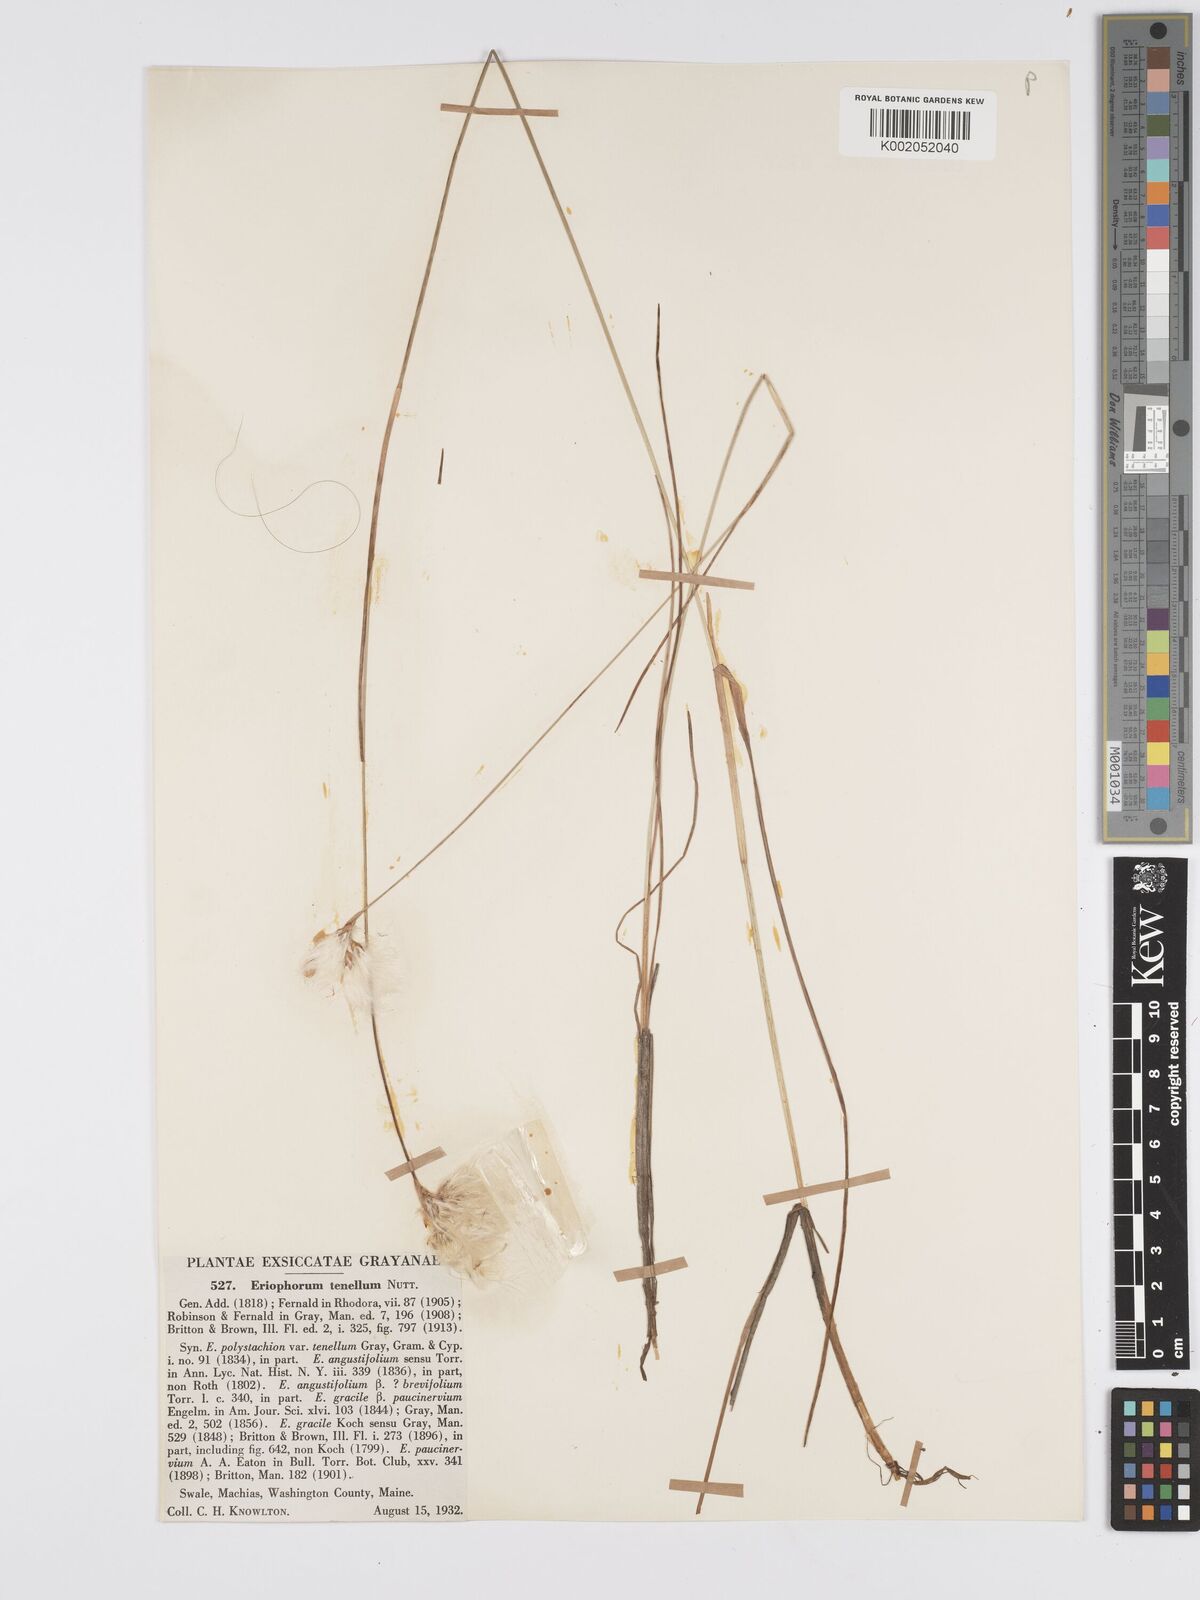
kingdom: Plantae
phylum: Tracheophyta
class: Liliopsida
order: Poales
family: Cyperaceae
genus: Eriophorum
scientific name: Eriophorum tenellum
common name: Few-nerved cottongrass
